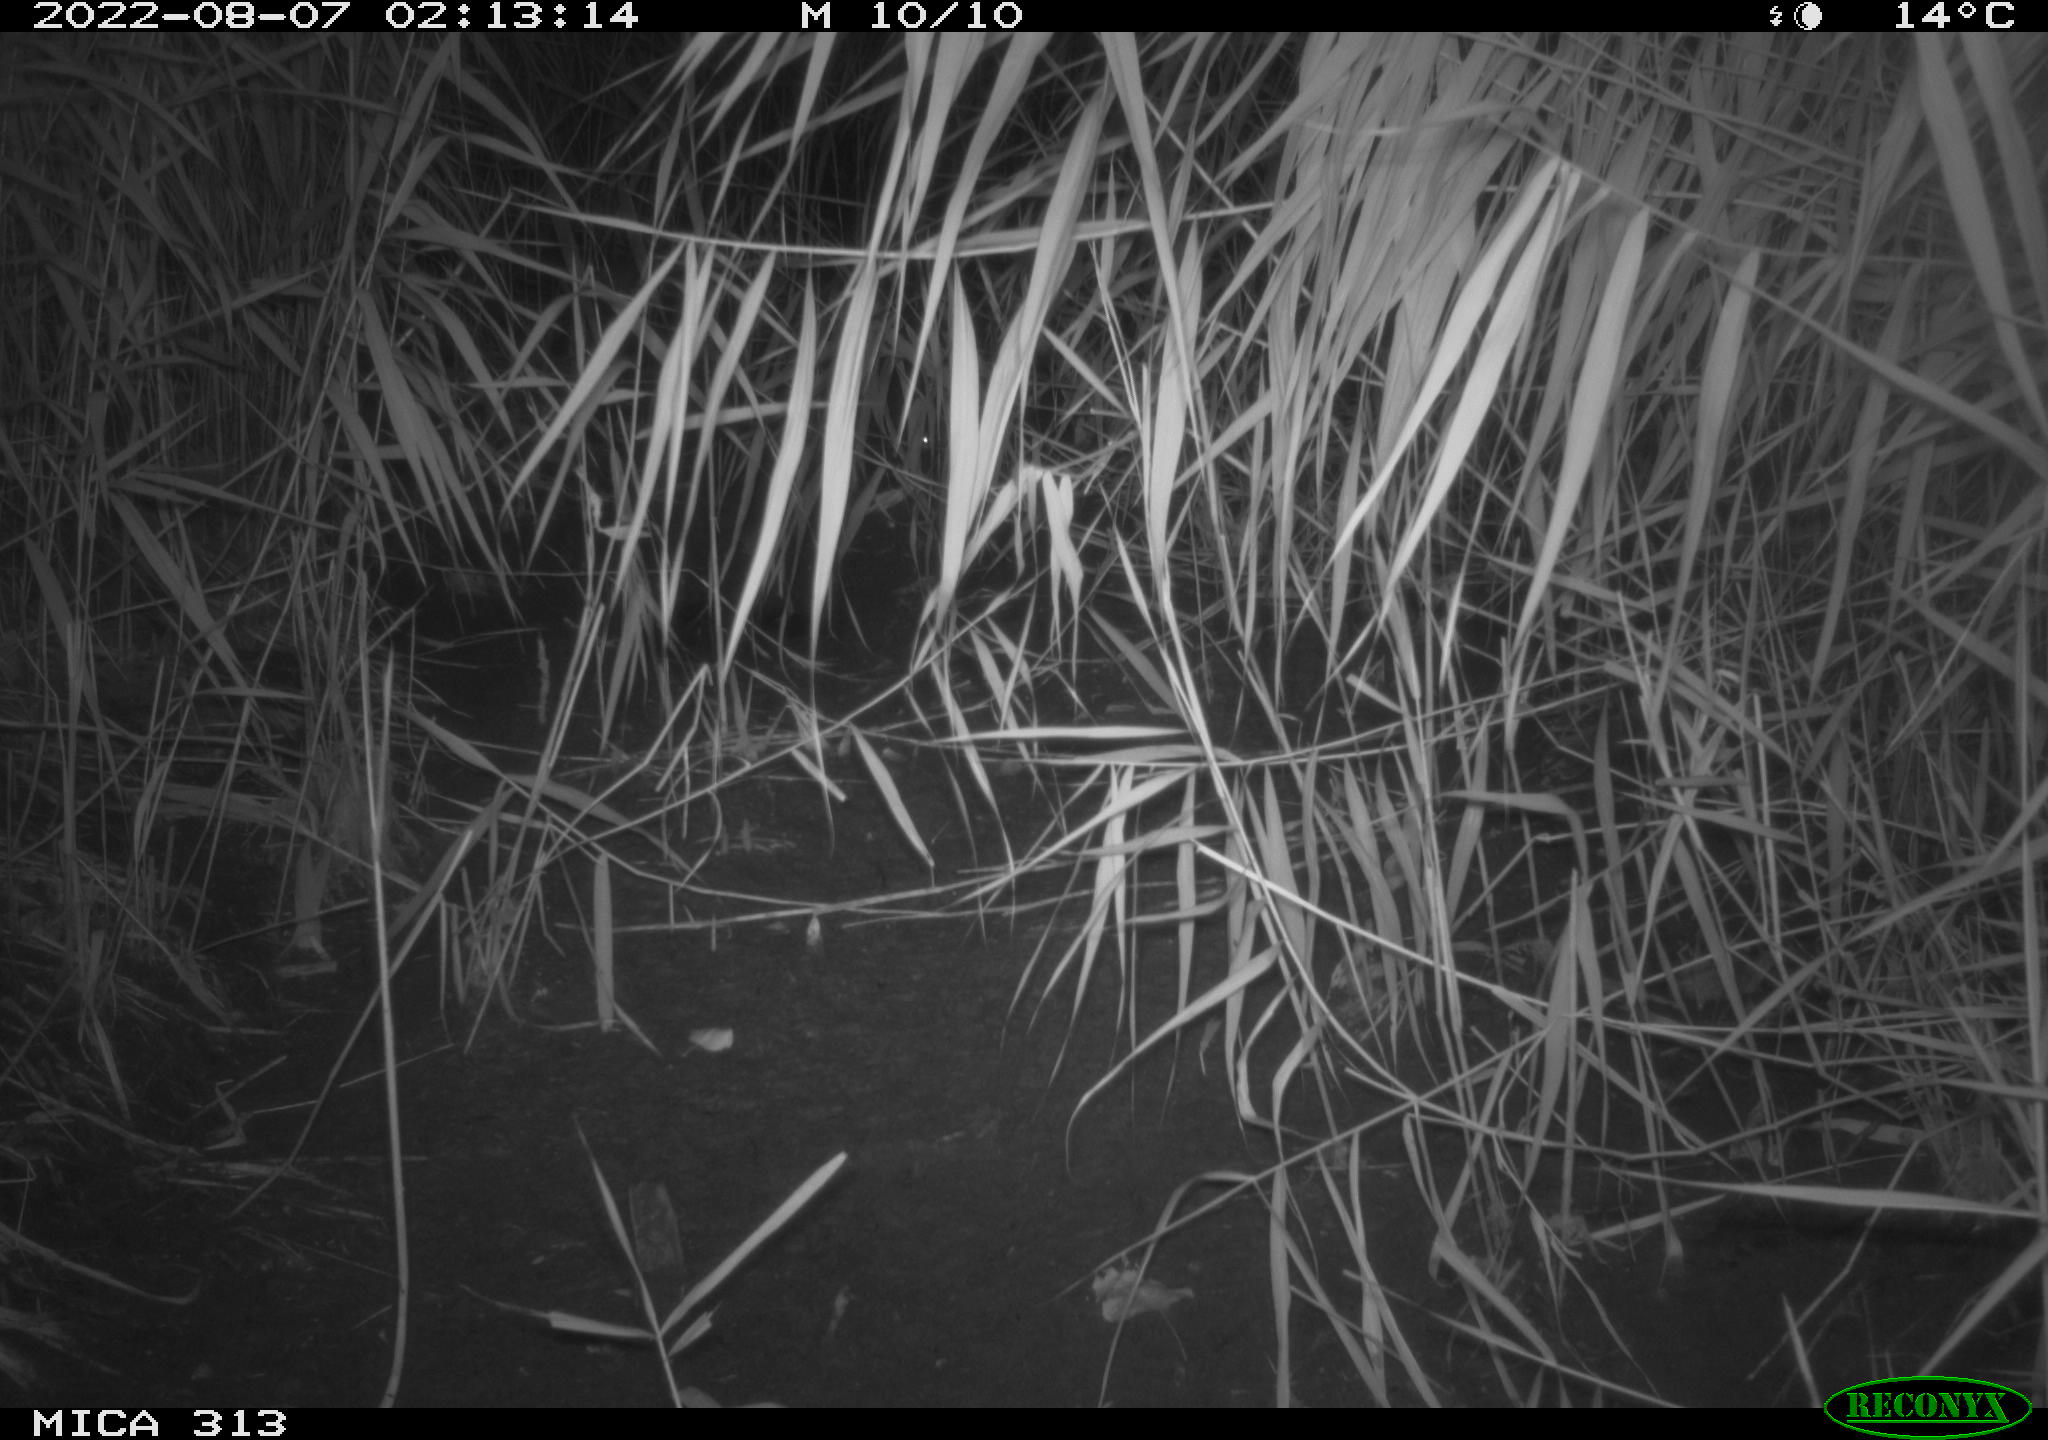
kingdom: Animalia
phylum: Chordata
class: Mammalia
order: Rodentia
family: Muridae
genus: Rattus
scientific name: Rattus norvegicus
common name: Brown rat
